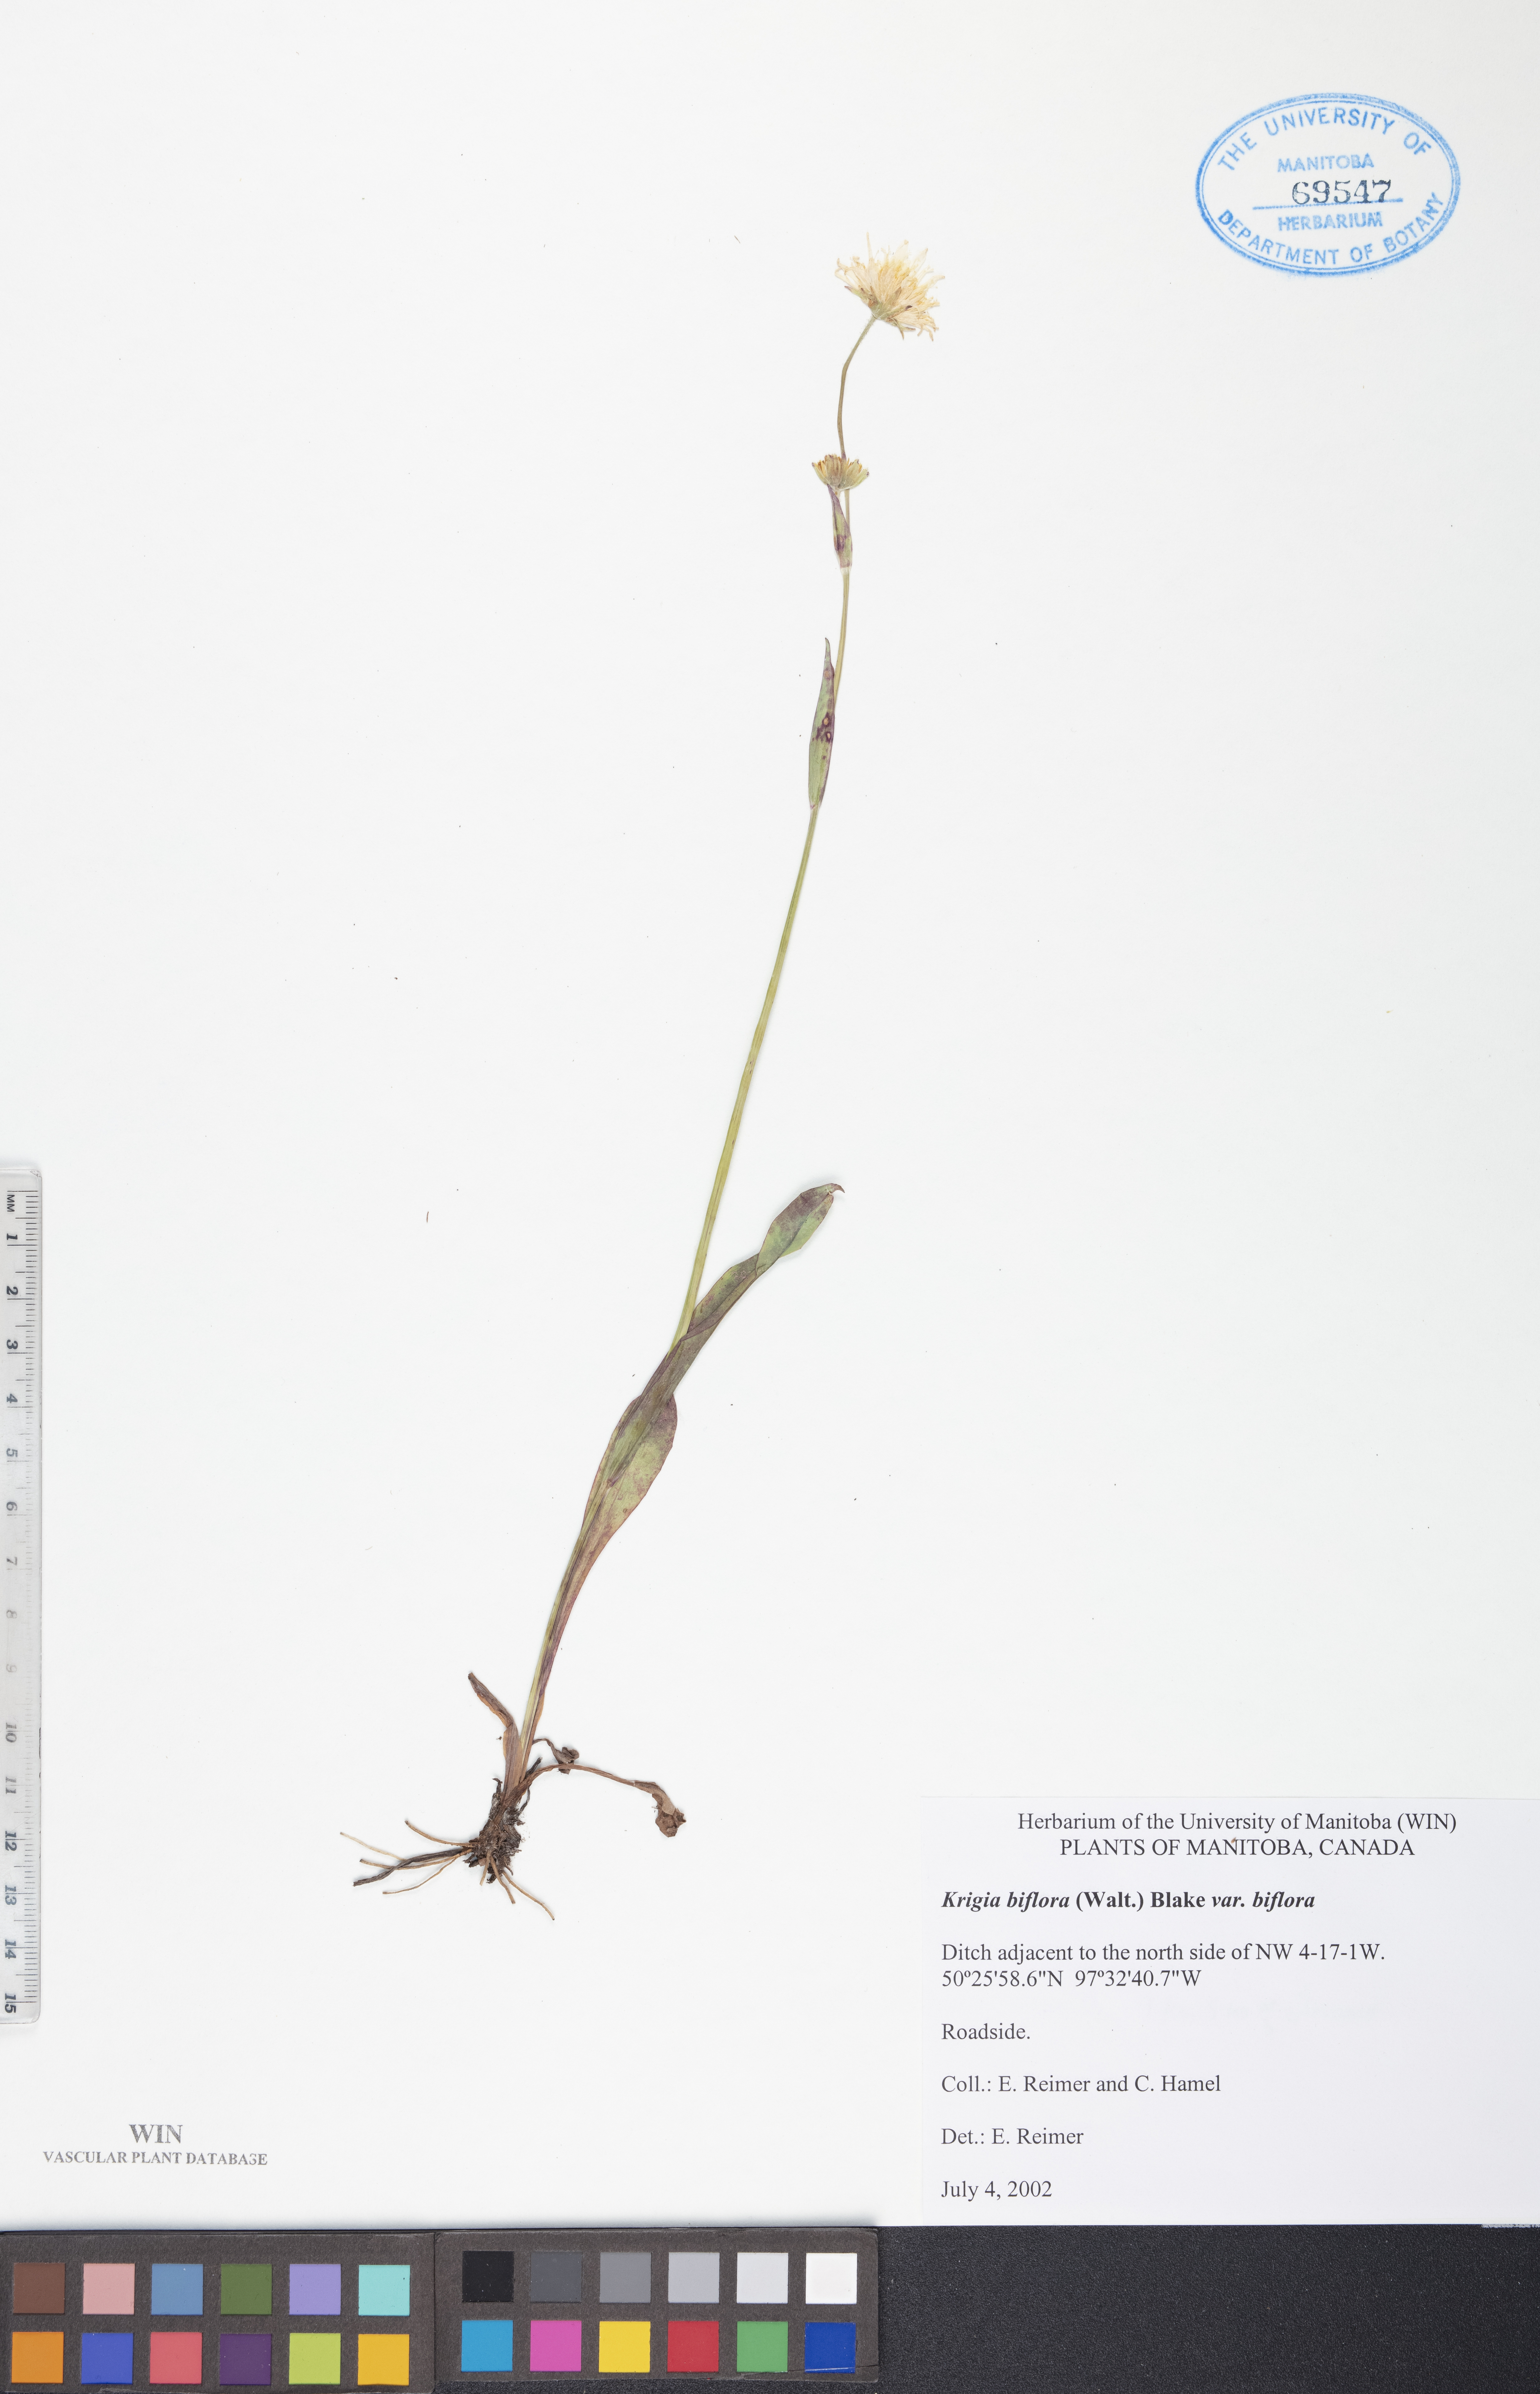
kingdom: Plantae
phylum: Tracheophyta
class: Magnoliopsida
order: Asterales
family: Asteraceae
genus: Krigia
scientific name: Krigia biflora
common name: Orange dwarf-dandelion
